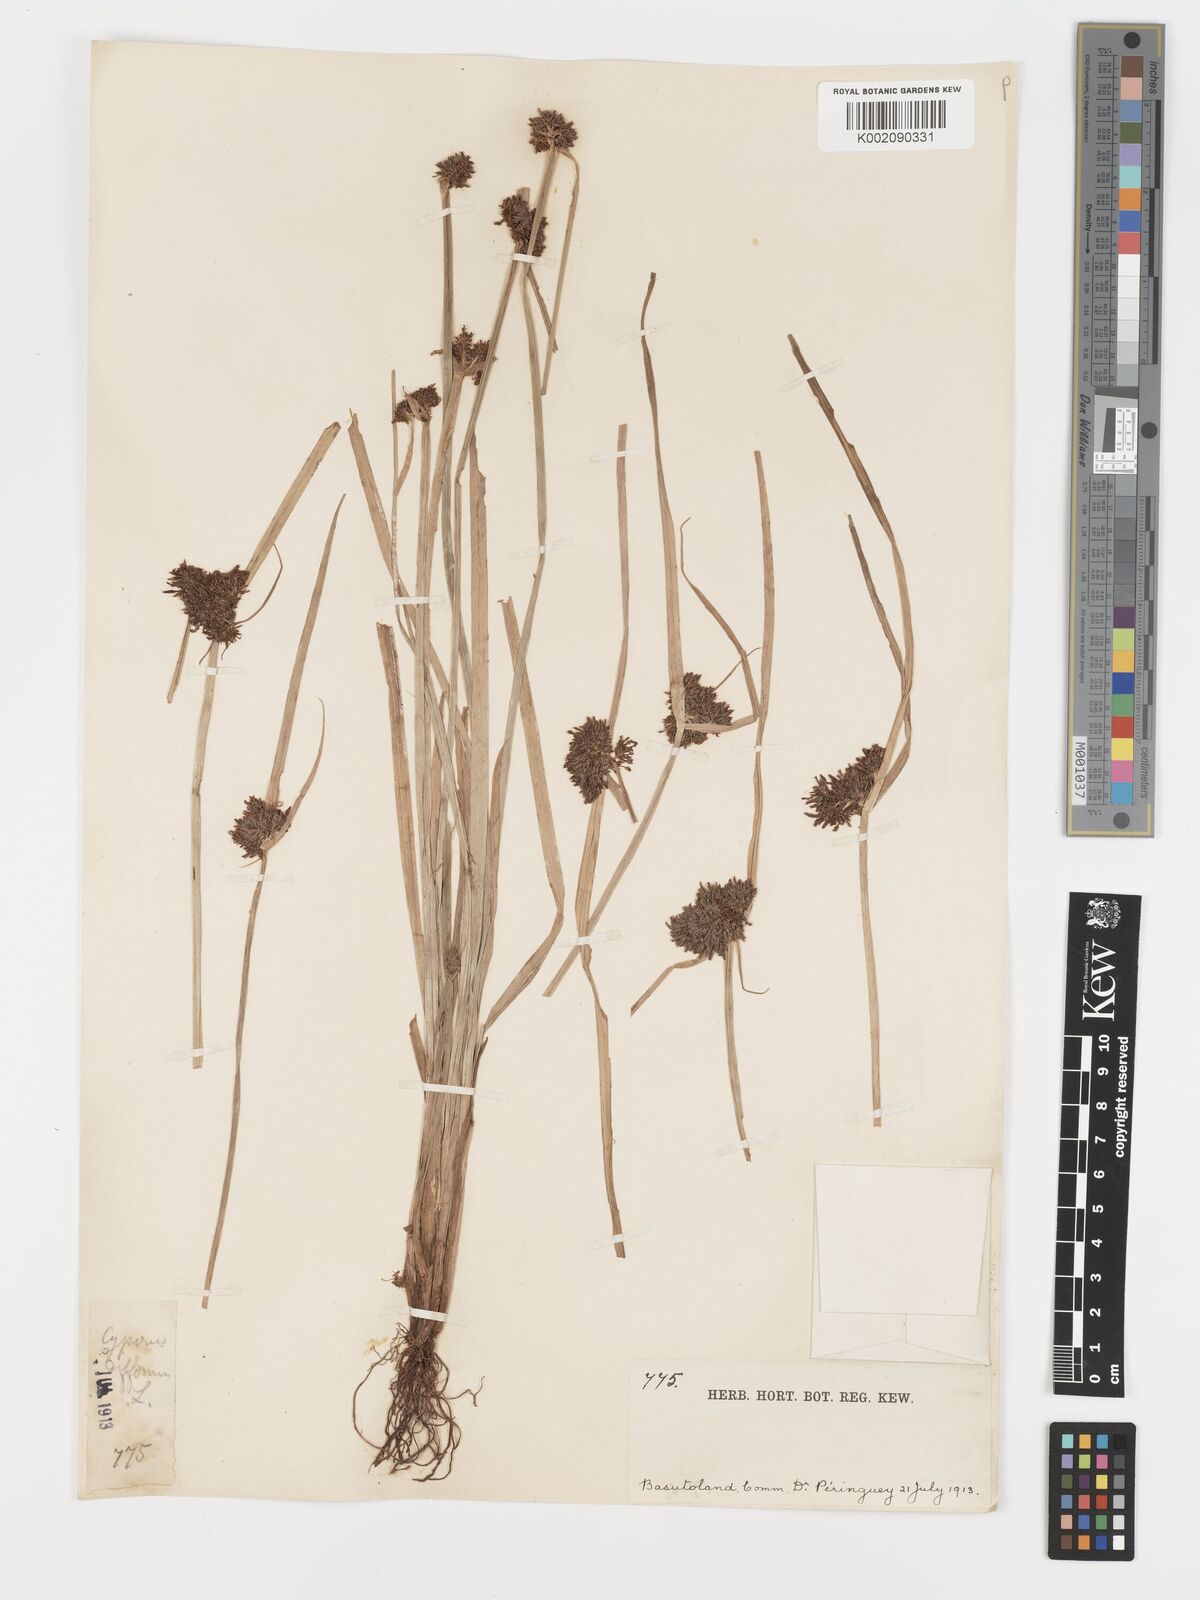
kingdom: Plantae
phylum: Tracheophyta
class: Liliopsida
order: Poales
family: Cyperaceae
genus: Cyperus
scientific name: Cyperus difformis
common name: Variable flatsedge
